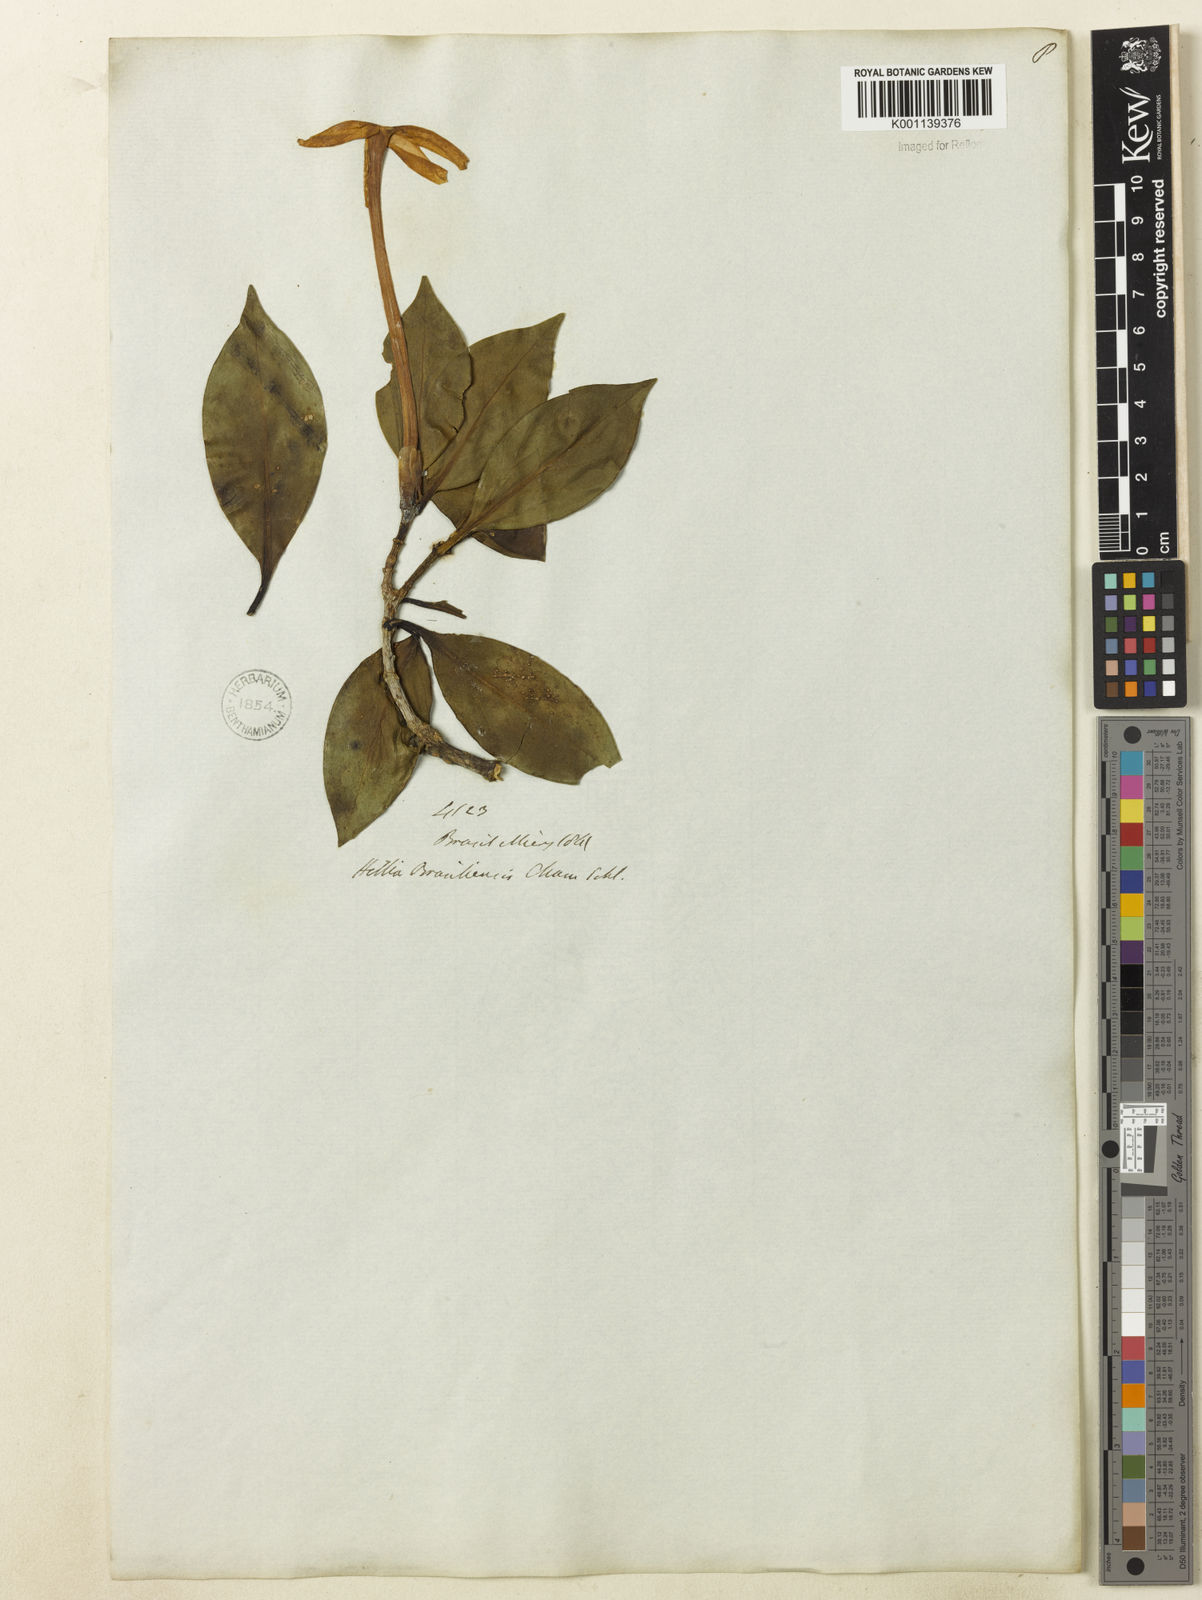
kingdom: Plantae
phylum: Tracheophyta
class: Magnoliopsida
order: Gentianales
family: Rubiaceae
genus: Hillia
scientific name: Hillia parasitica
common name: Morning star
